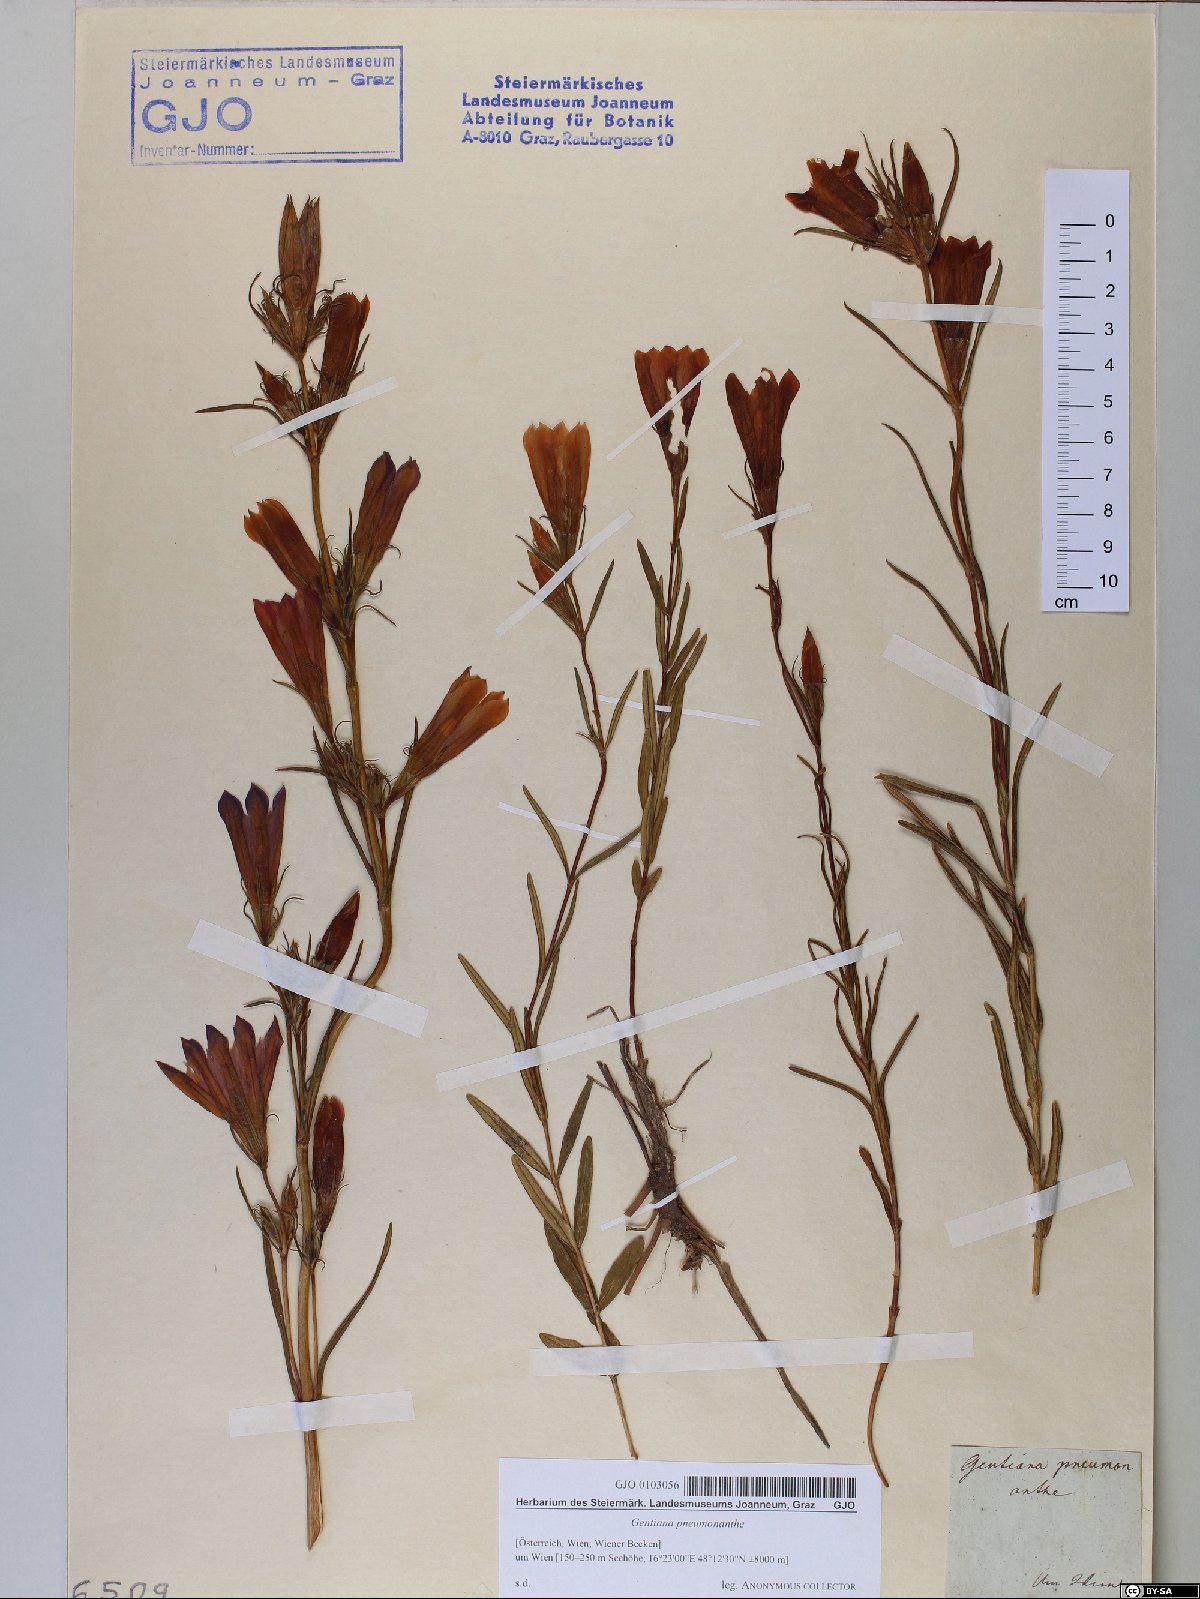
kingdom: Plantae
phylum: Tracheophyta
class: Magnoliopsida
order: Gentianales
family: Gentianaceae
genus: Gentiana
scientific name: Gentiana pneumonanthe
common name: Marsh gentian
